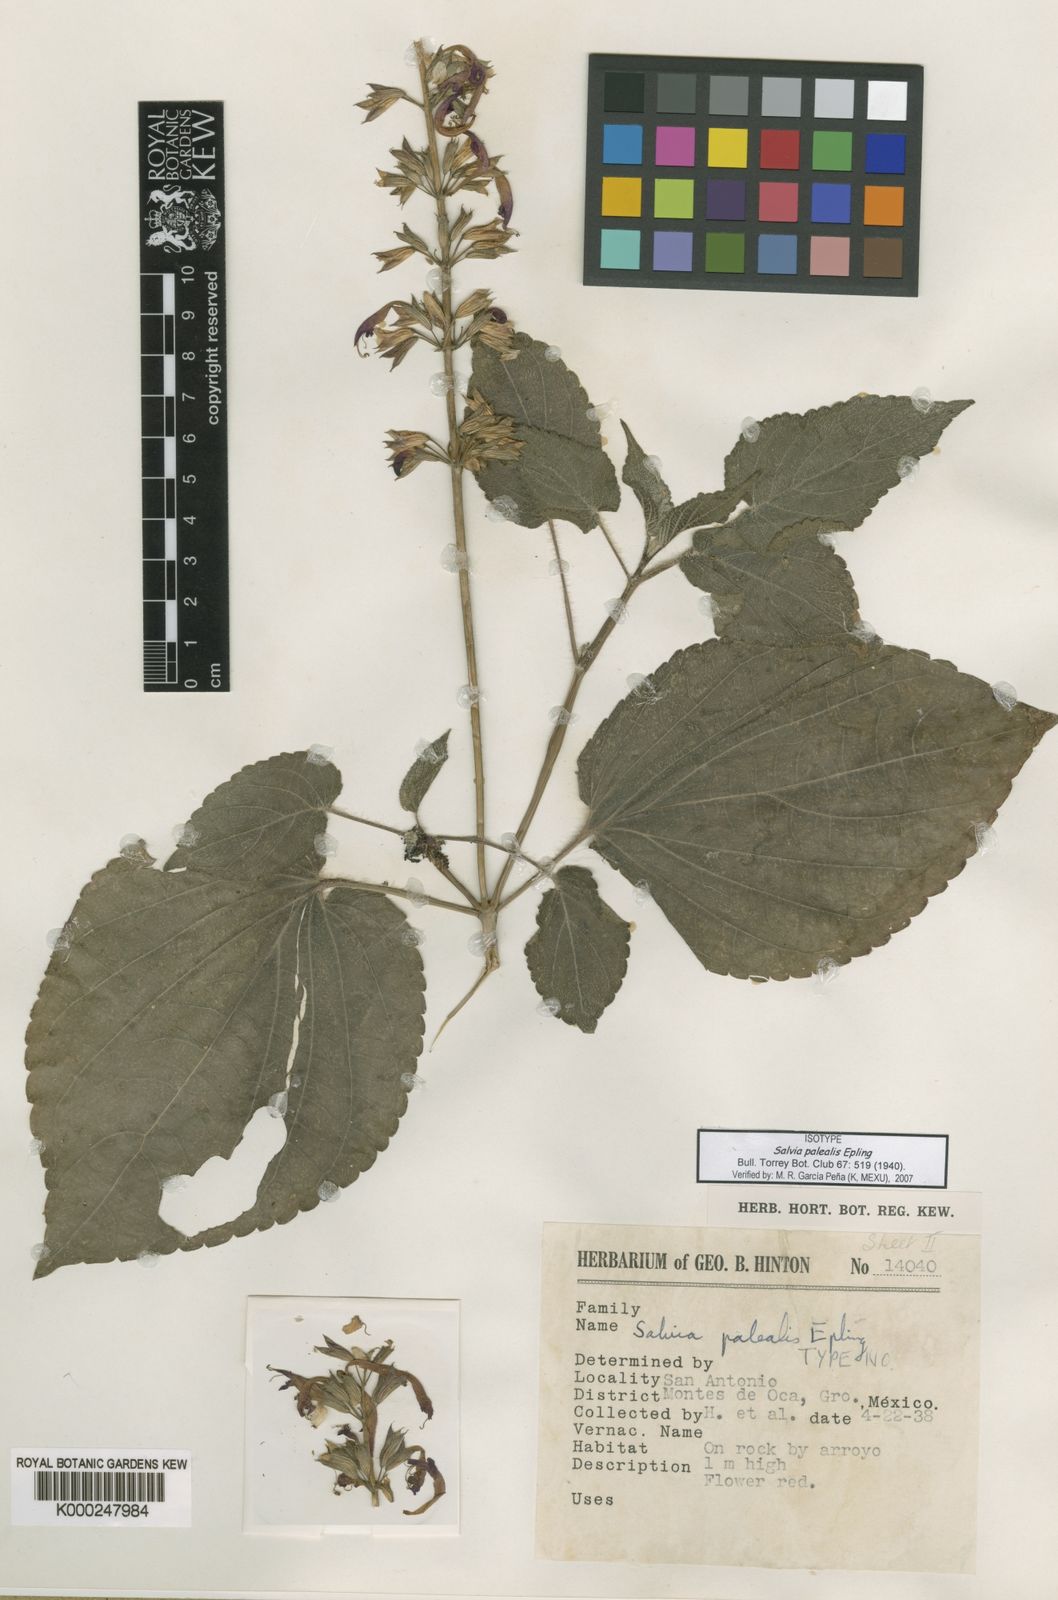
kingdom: Plantae
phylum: Tracheophyta
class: Magnoliopsida
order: Lamiales
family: Lamiaceae
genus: Salvia
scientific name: Salvia palealis
